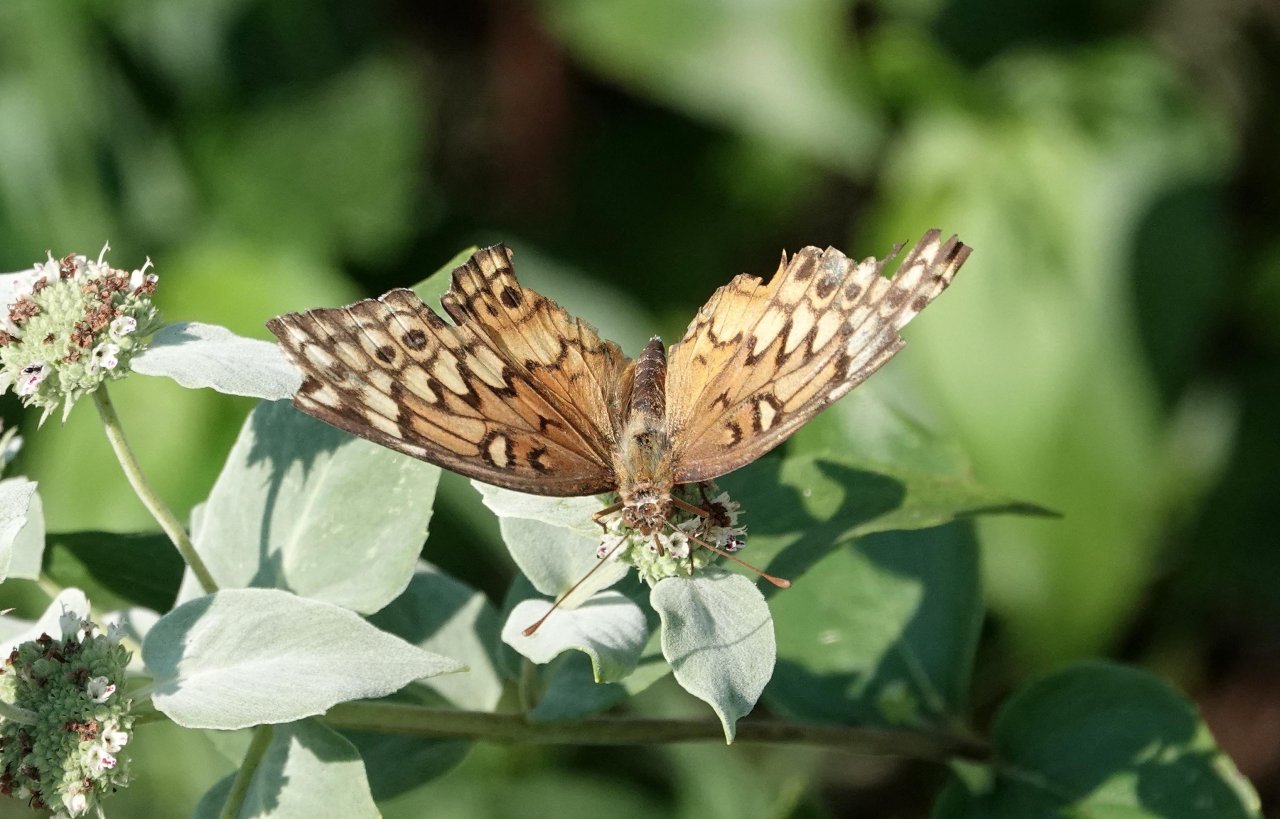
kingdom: Animalia
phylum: Arthropoda
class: Insecta
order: Lepidoptera
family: Nymphalidae
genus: Euptoieta
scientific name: Euptoieta claudia
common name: Variegated Fritillary
